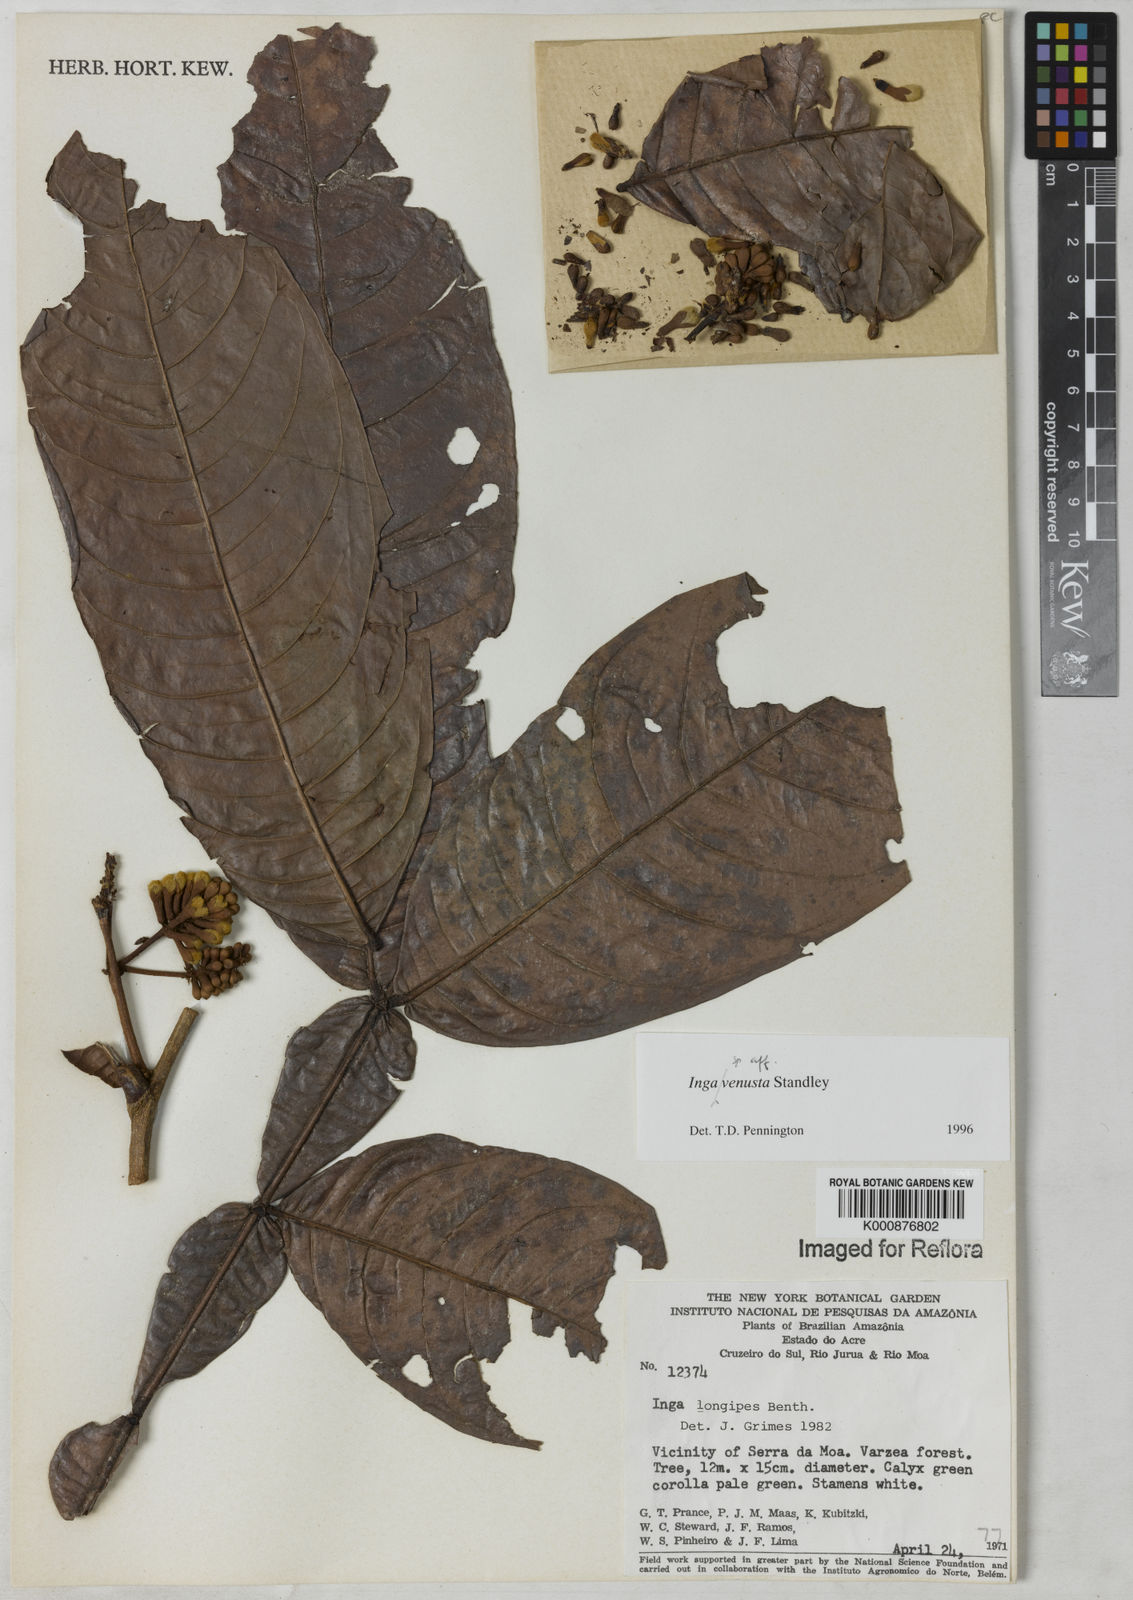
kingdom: Plantae
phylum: Tracheophyta
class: Magnoliopsida
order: Fabales
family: Fabaceae
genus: Inga
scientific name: Inga venusta
